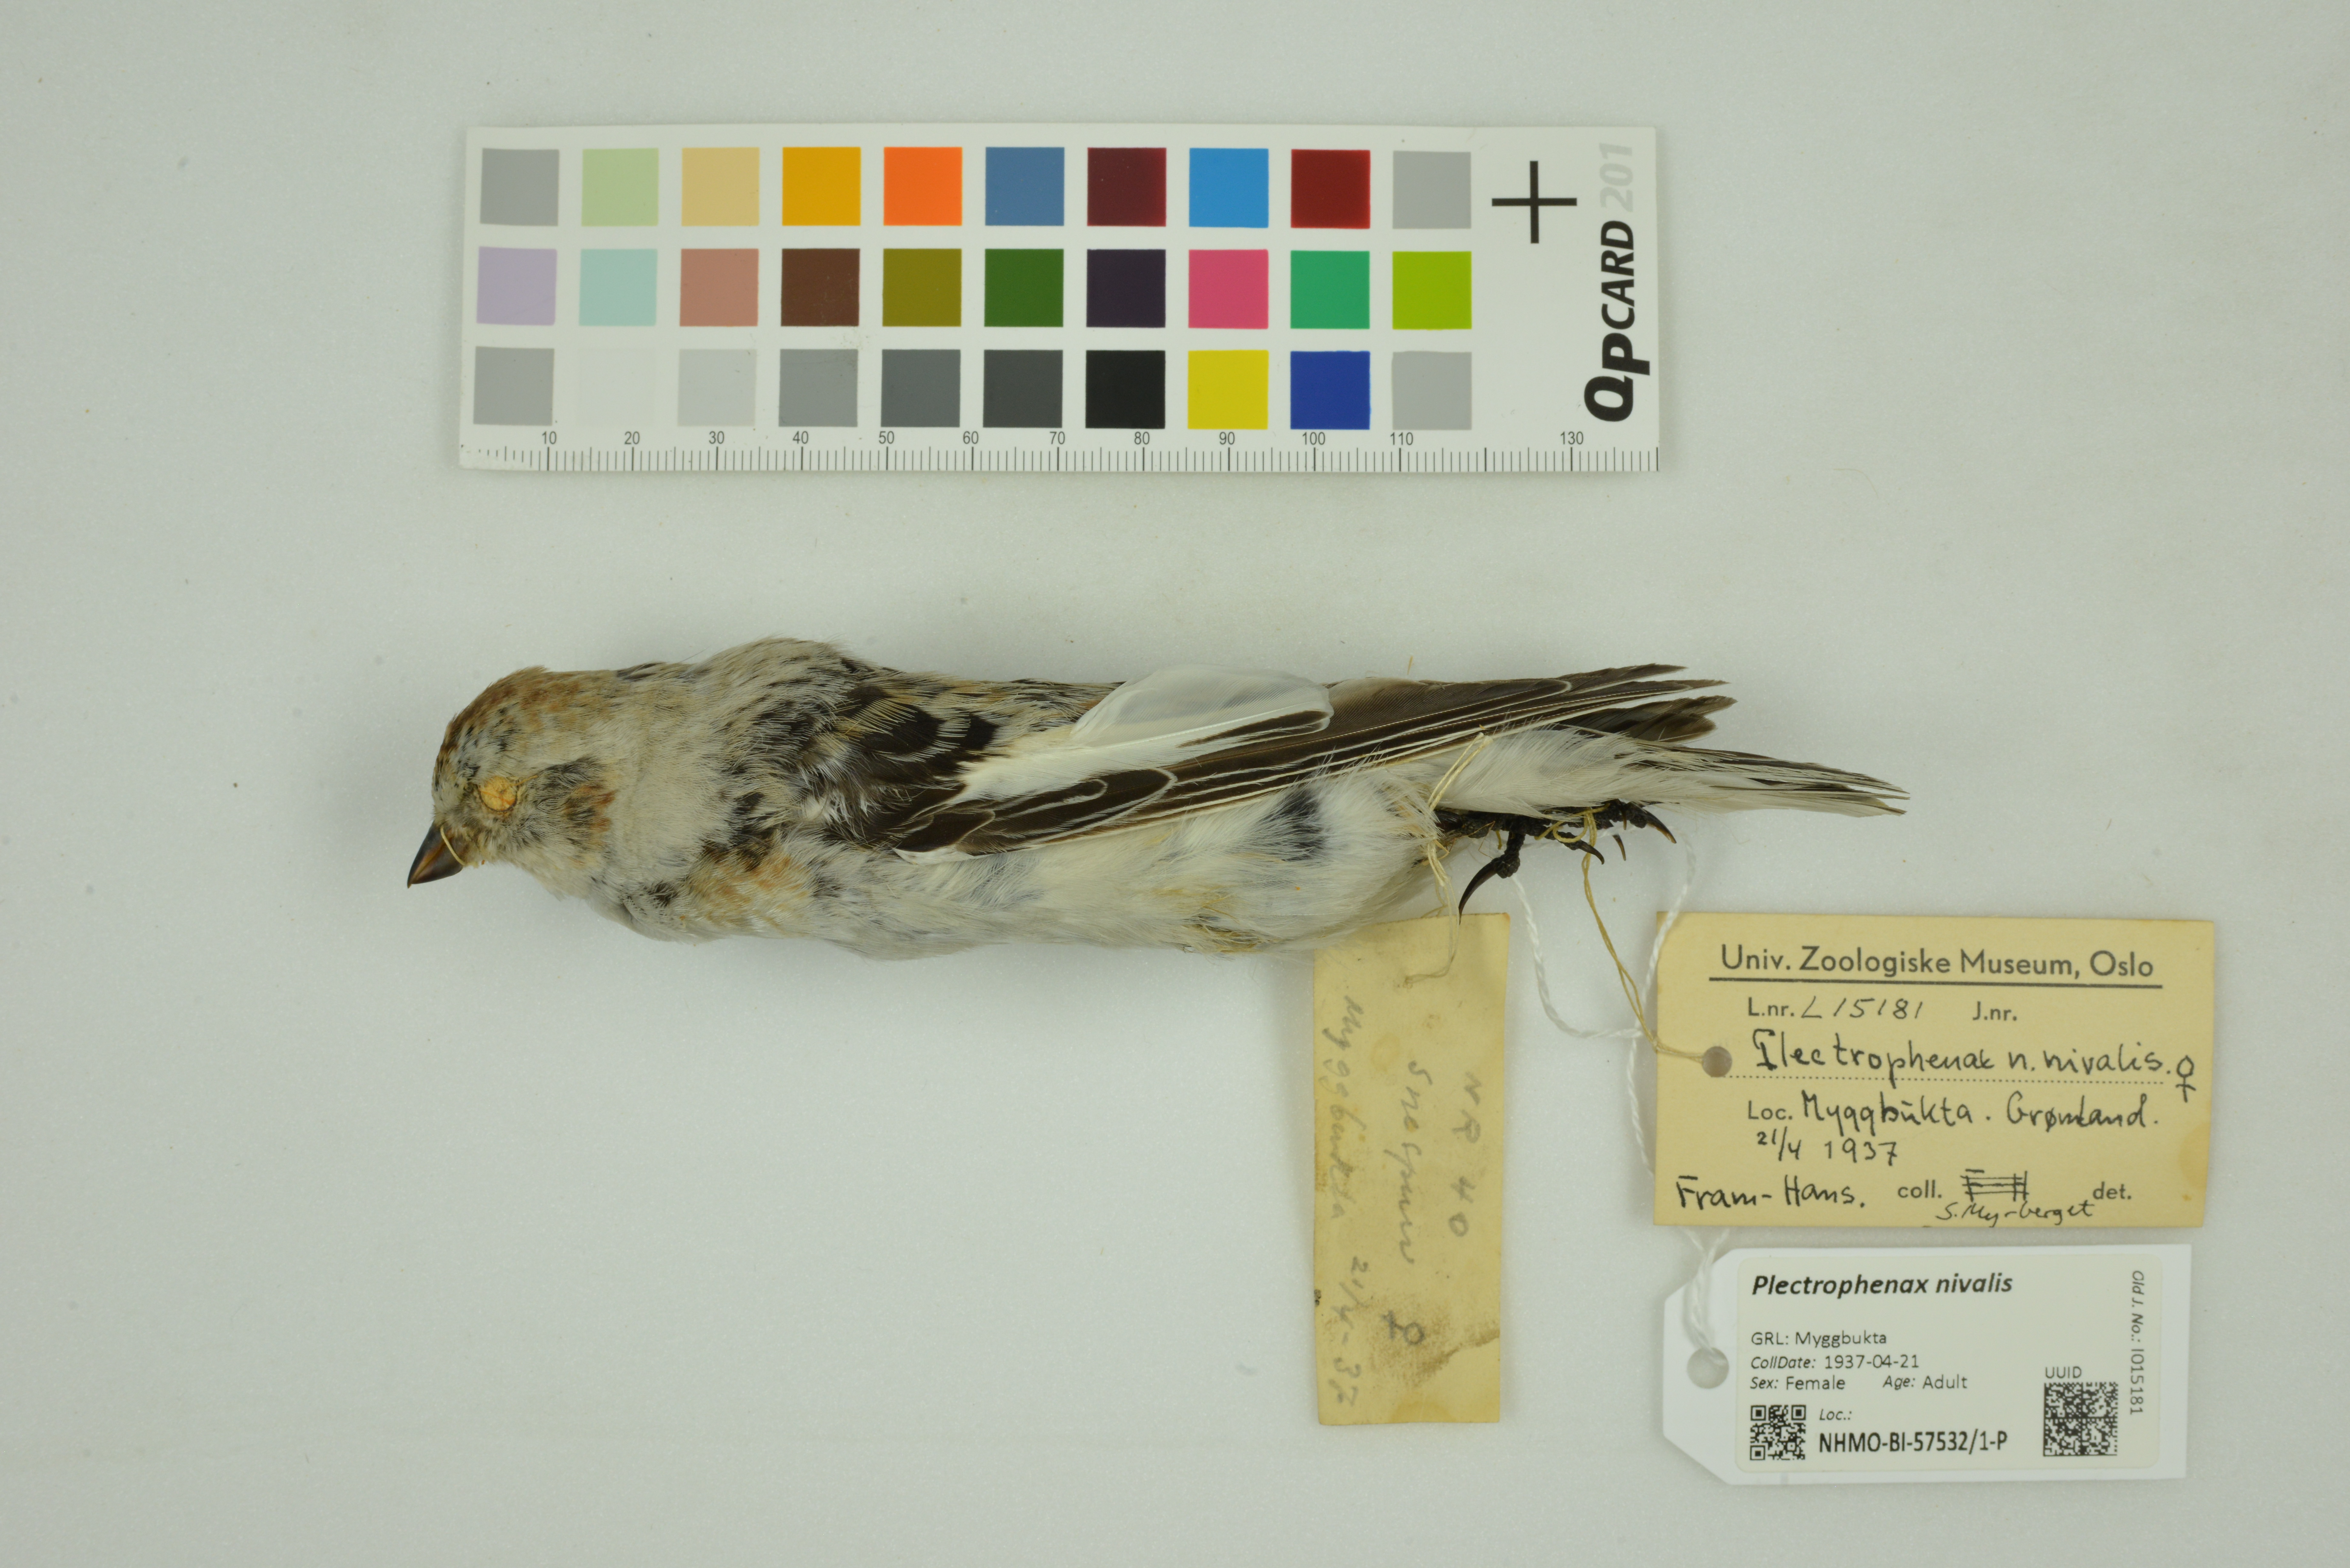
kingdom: Animalia
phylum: Chordata
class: Aves
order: Passeriformes
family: Calcariidae
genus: Plectrophenax
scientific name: Plectrophenax nivalis
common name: Snow bunting
